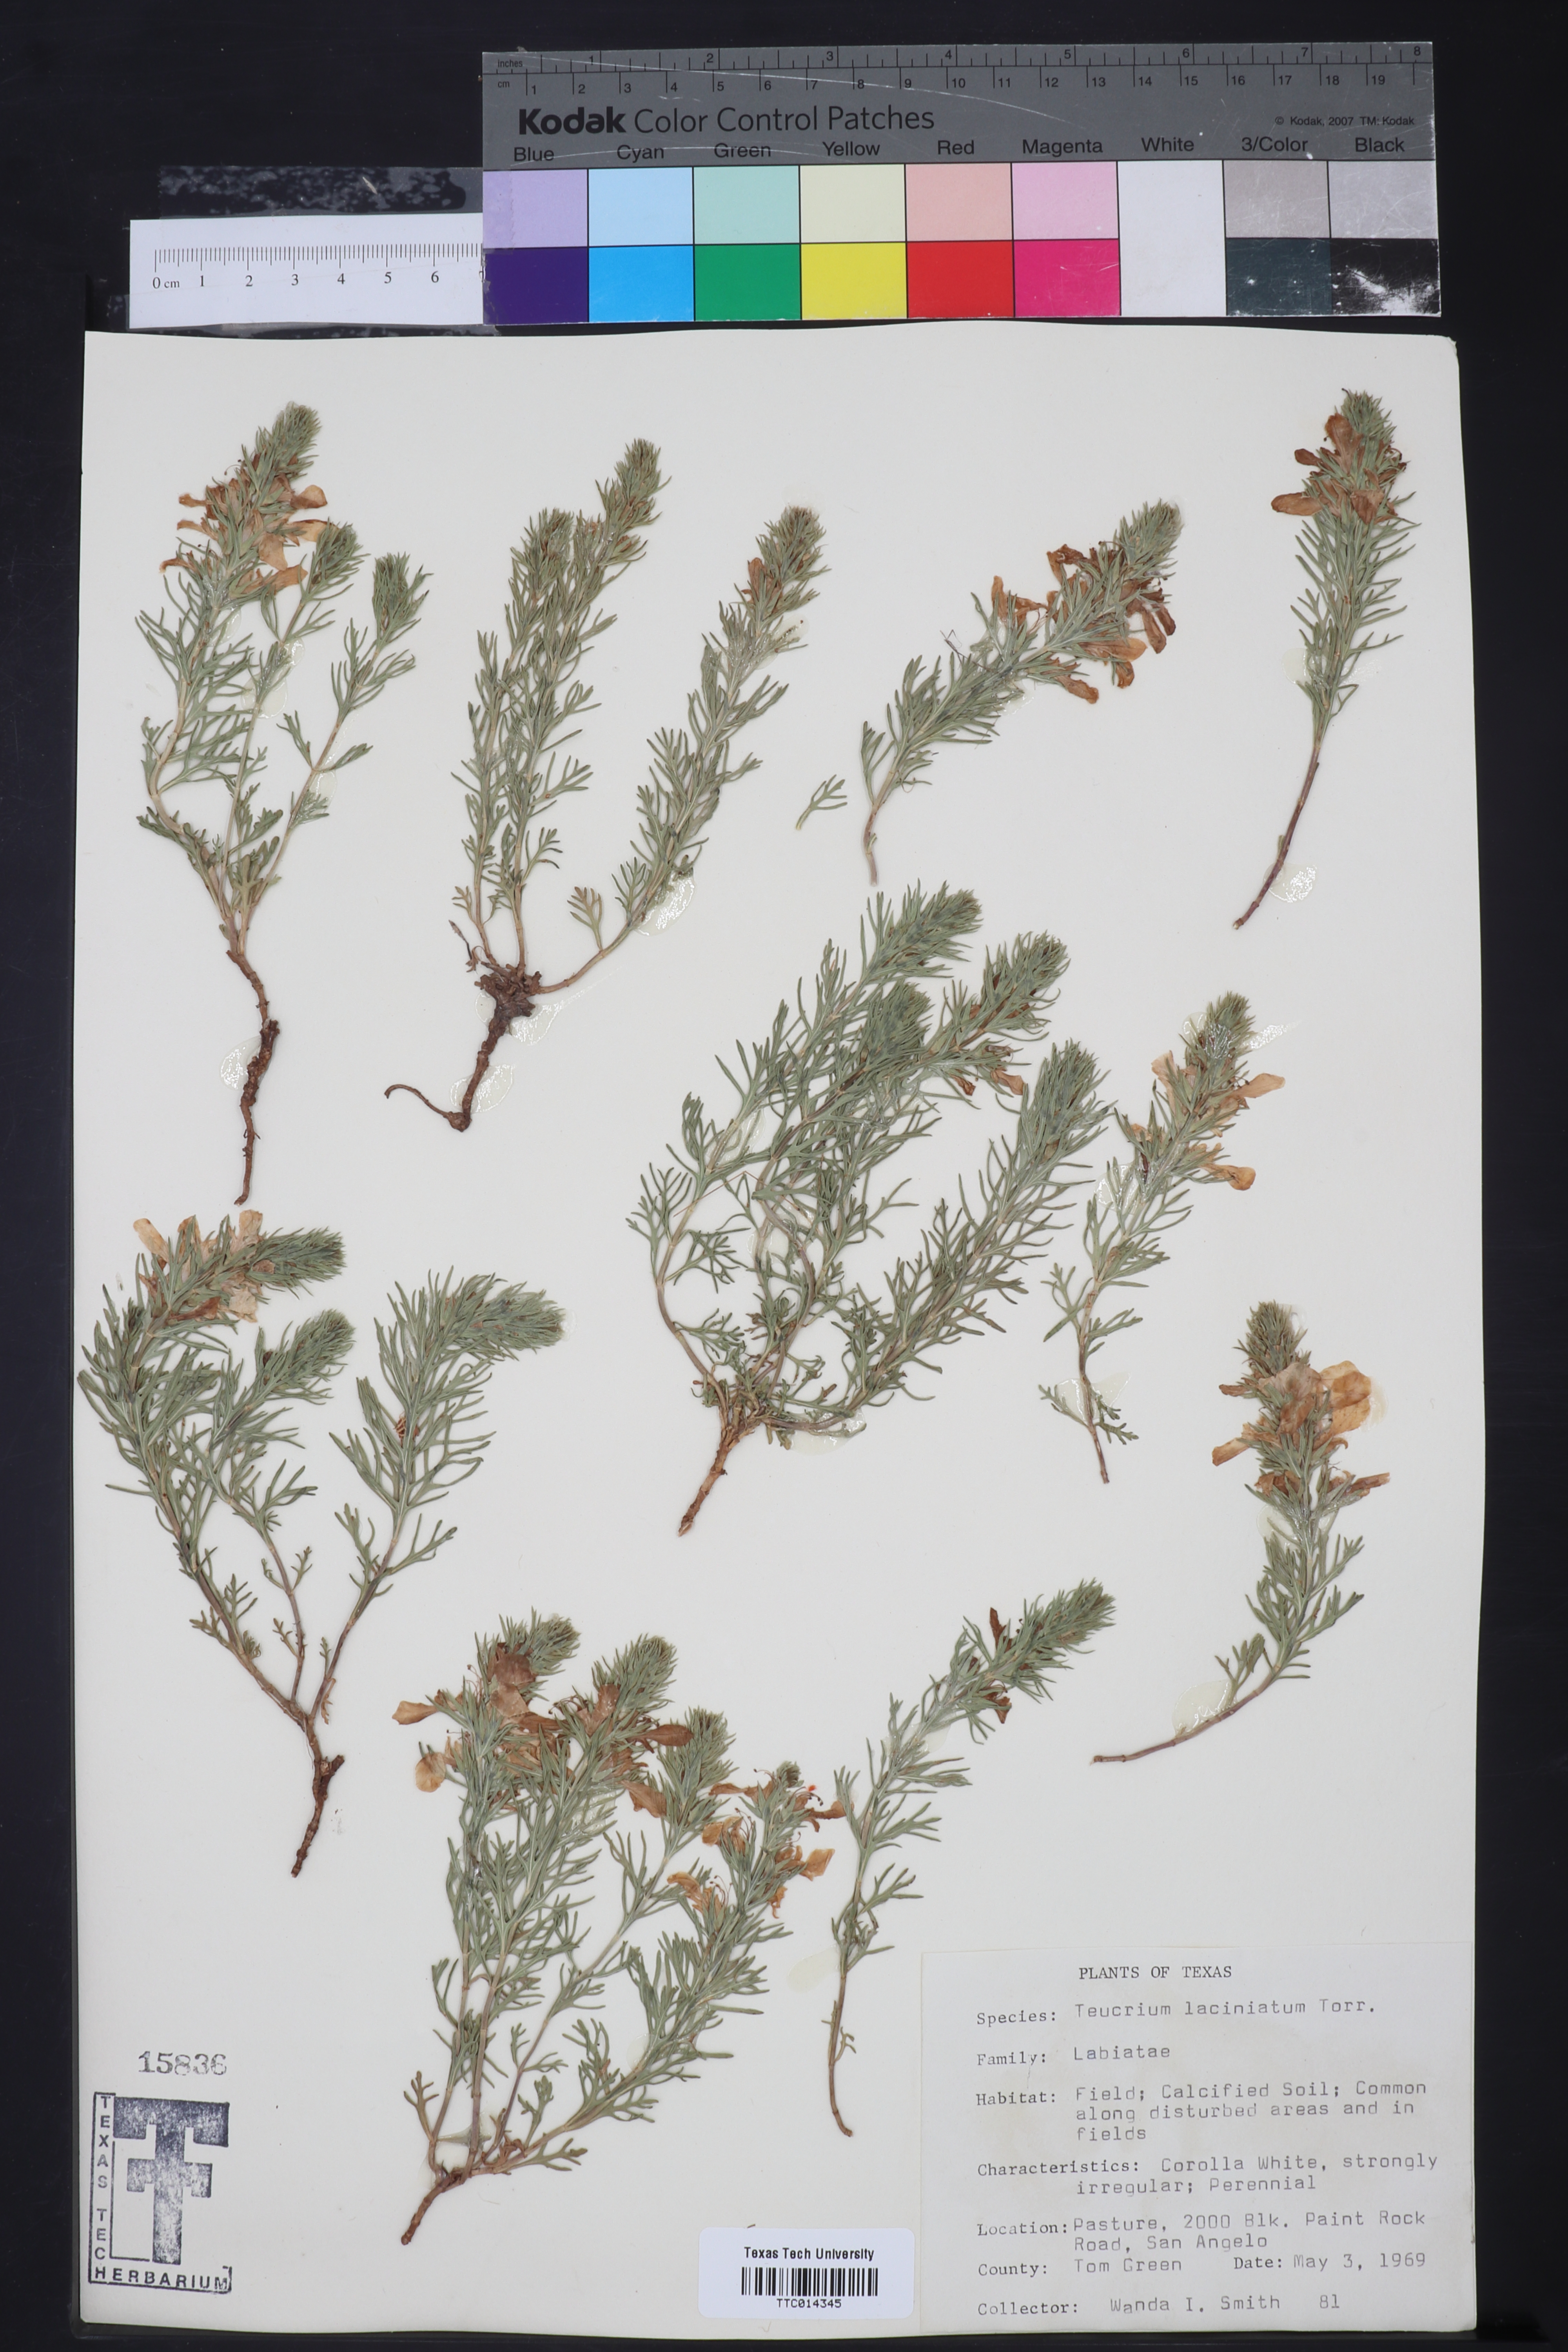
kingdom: Plantae
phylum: Tracheophyta
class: Magnoliopsida
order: Lamiales
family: Lamiaceae
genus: Teucrium
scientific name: Teucrium laciniatum
